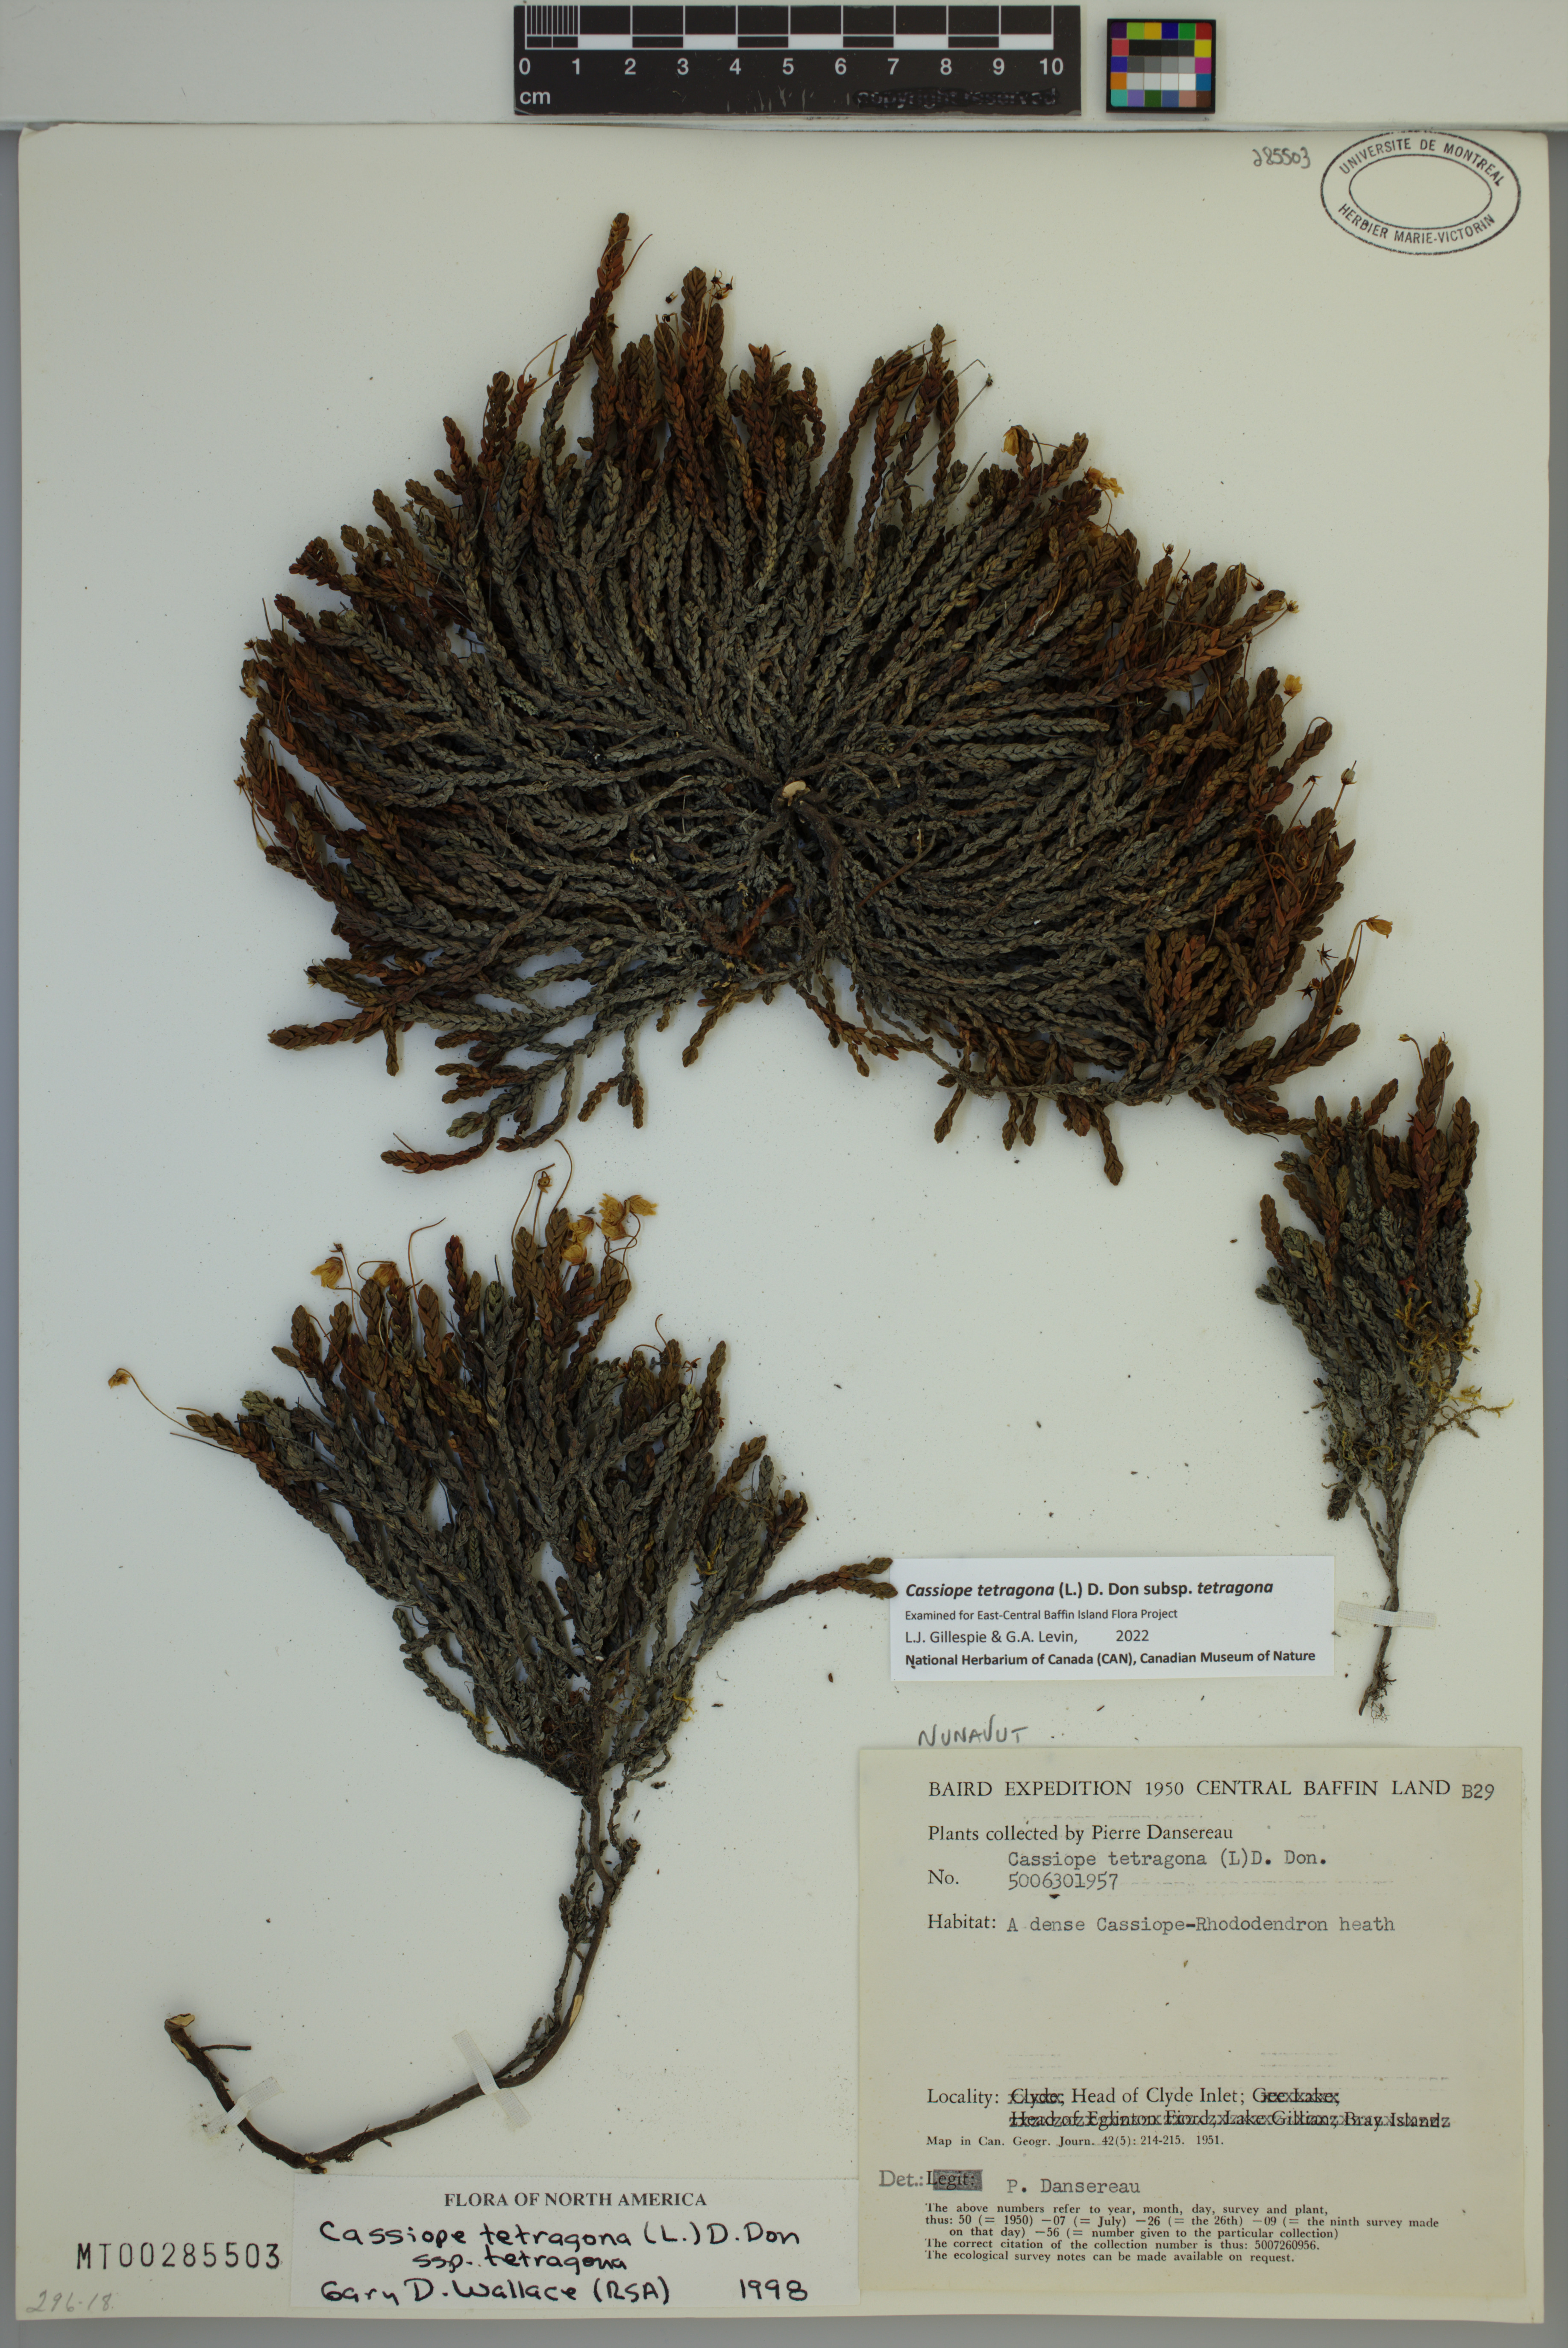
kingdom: Plantae
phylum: Tracheophyta
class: Magnoliopsida
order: Ericales
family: Ericaceae
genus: Cassiope
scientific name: Cassiope tetragona
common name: Arctic bell heather
